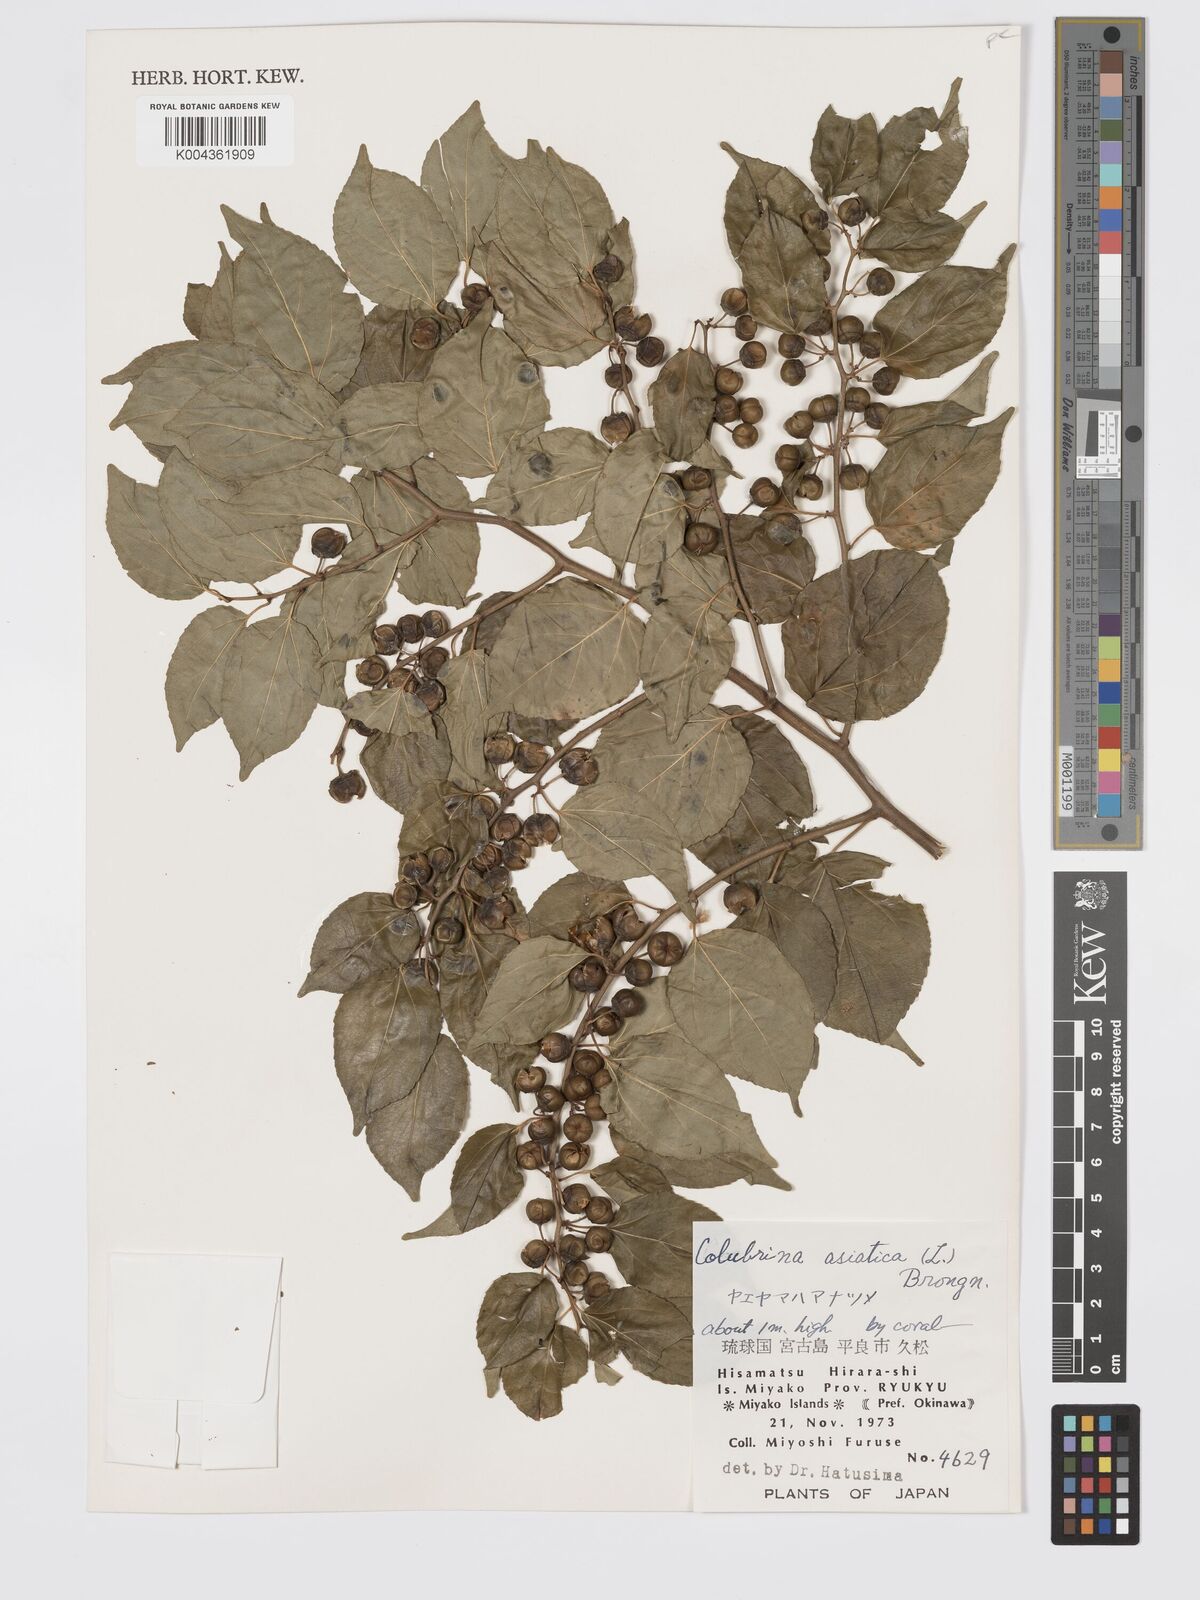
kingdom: Plantae
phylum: Tracheophyta
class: Magnoliopsida
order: Rosales
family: Rhamnaceae
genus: Colubrina
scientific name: Colubrina asiatica
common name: Asian nakedwood
